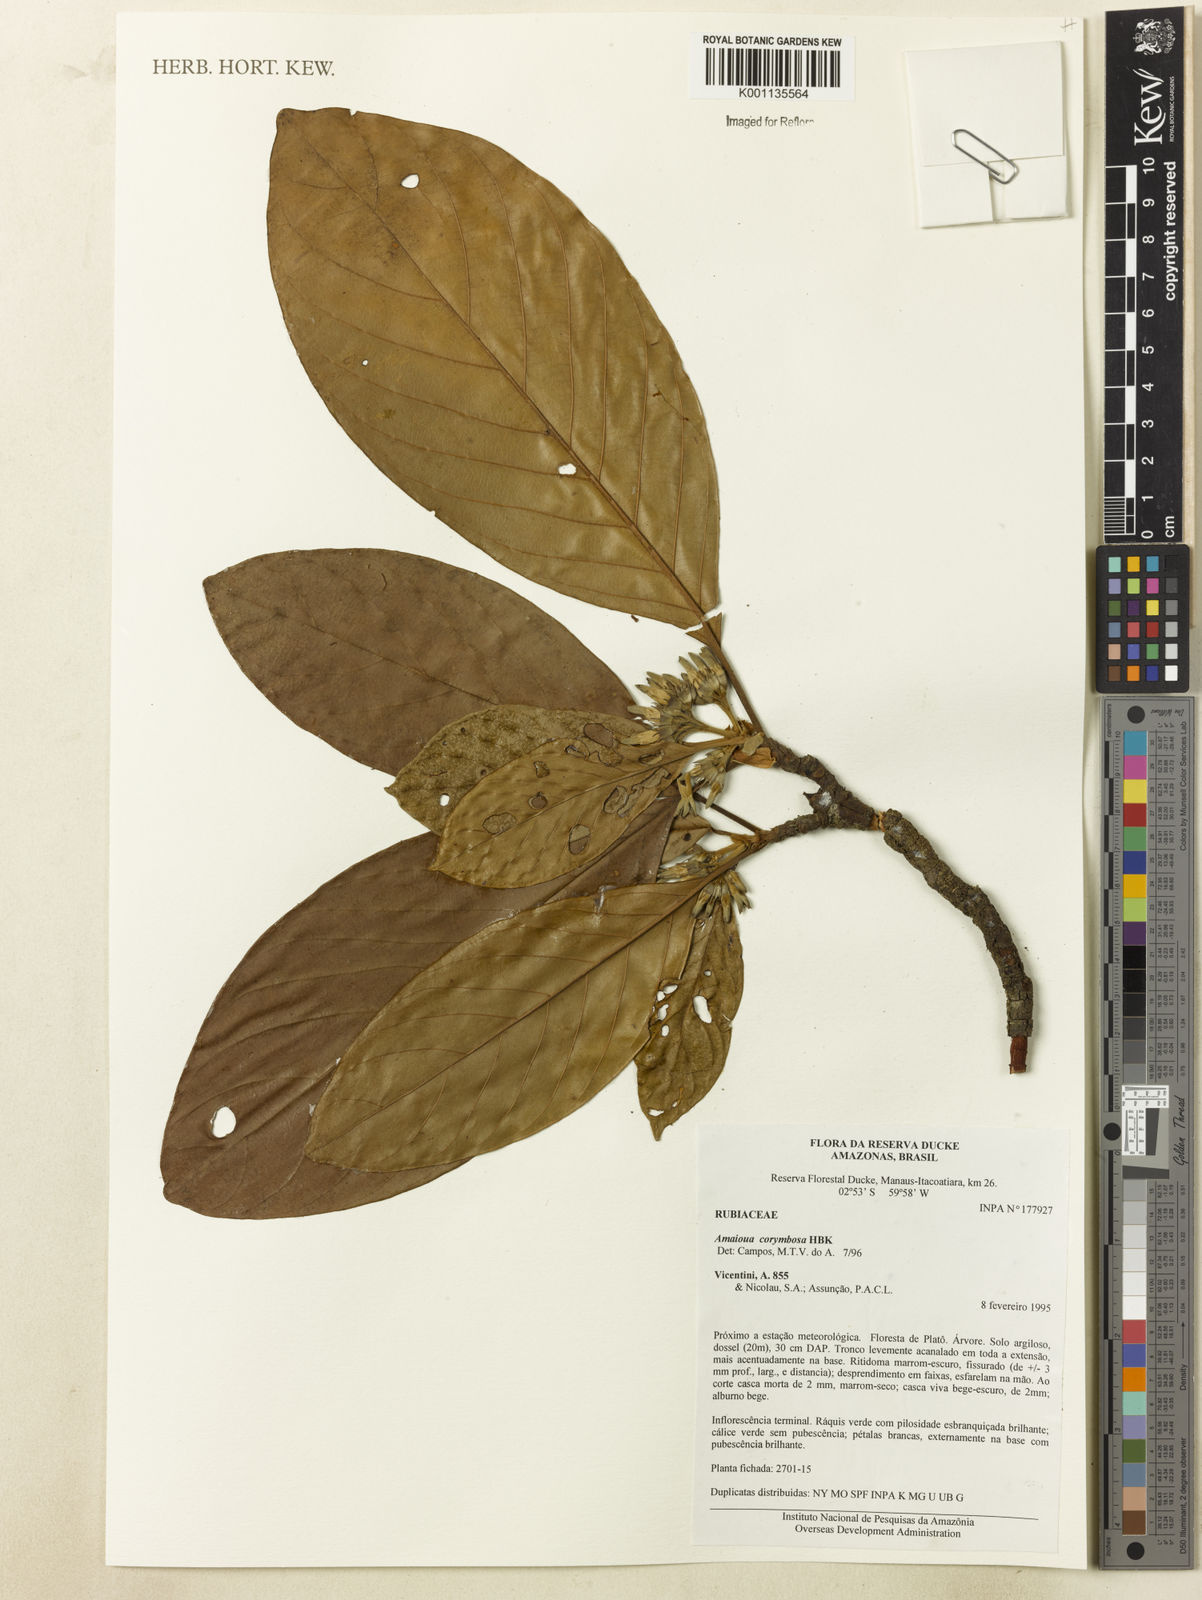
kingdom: Plantae
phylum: Tracheophyta
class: Magnoliopsida
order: Gentianales
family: Rubiaceae
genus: Amaioua
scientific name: Amaioua glomerulata
